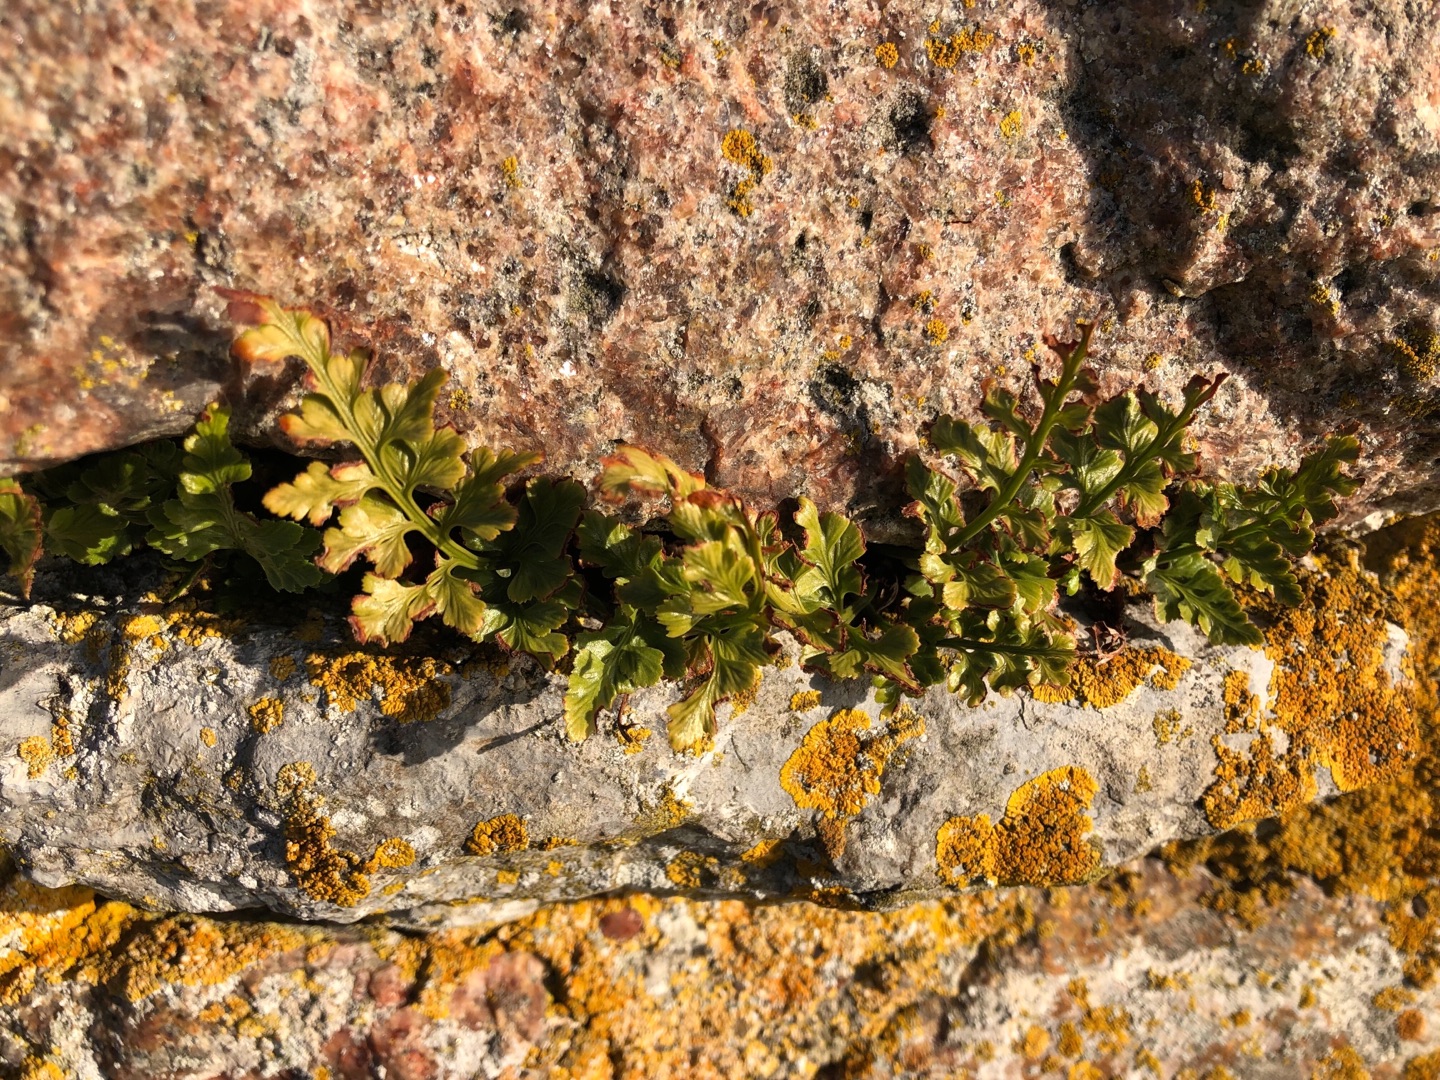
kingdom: Plantae
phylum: Tracheophyta
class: Polypodiopsida
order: Polypodiales
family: Aspleniaceae
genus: Asplenium
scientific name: Asplenium adiantum-nigrum
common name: Sort radeløv
